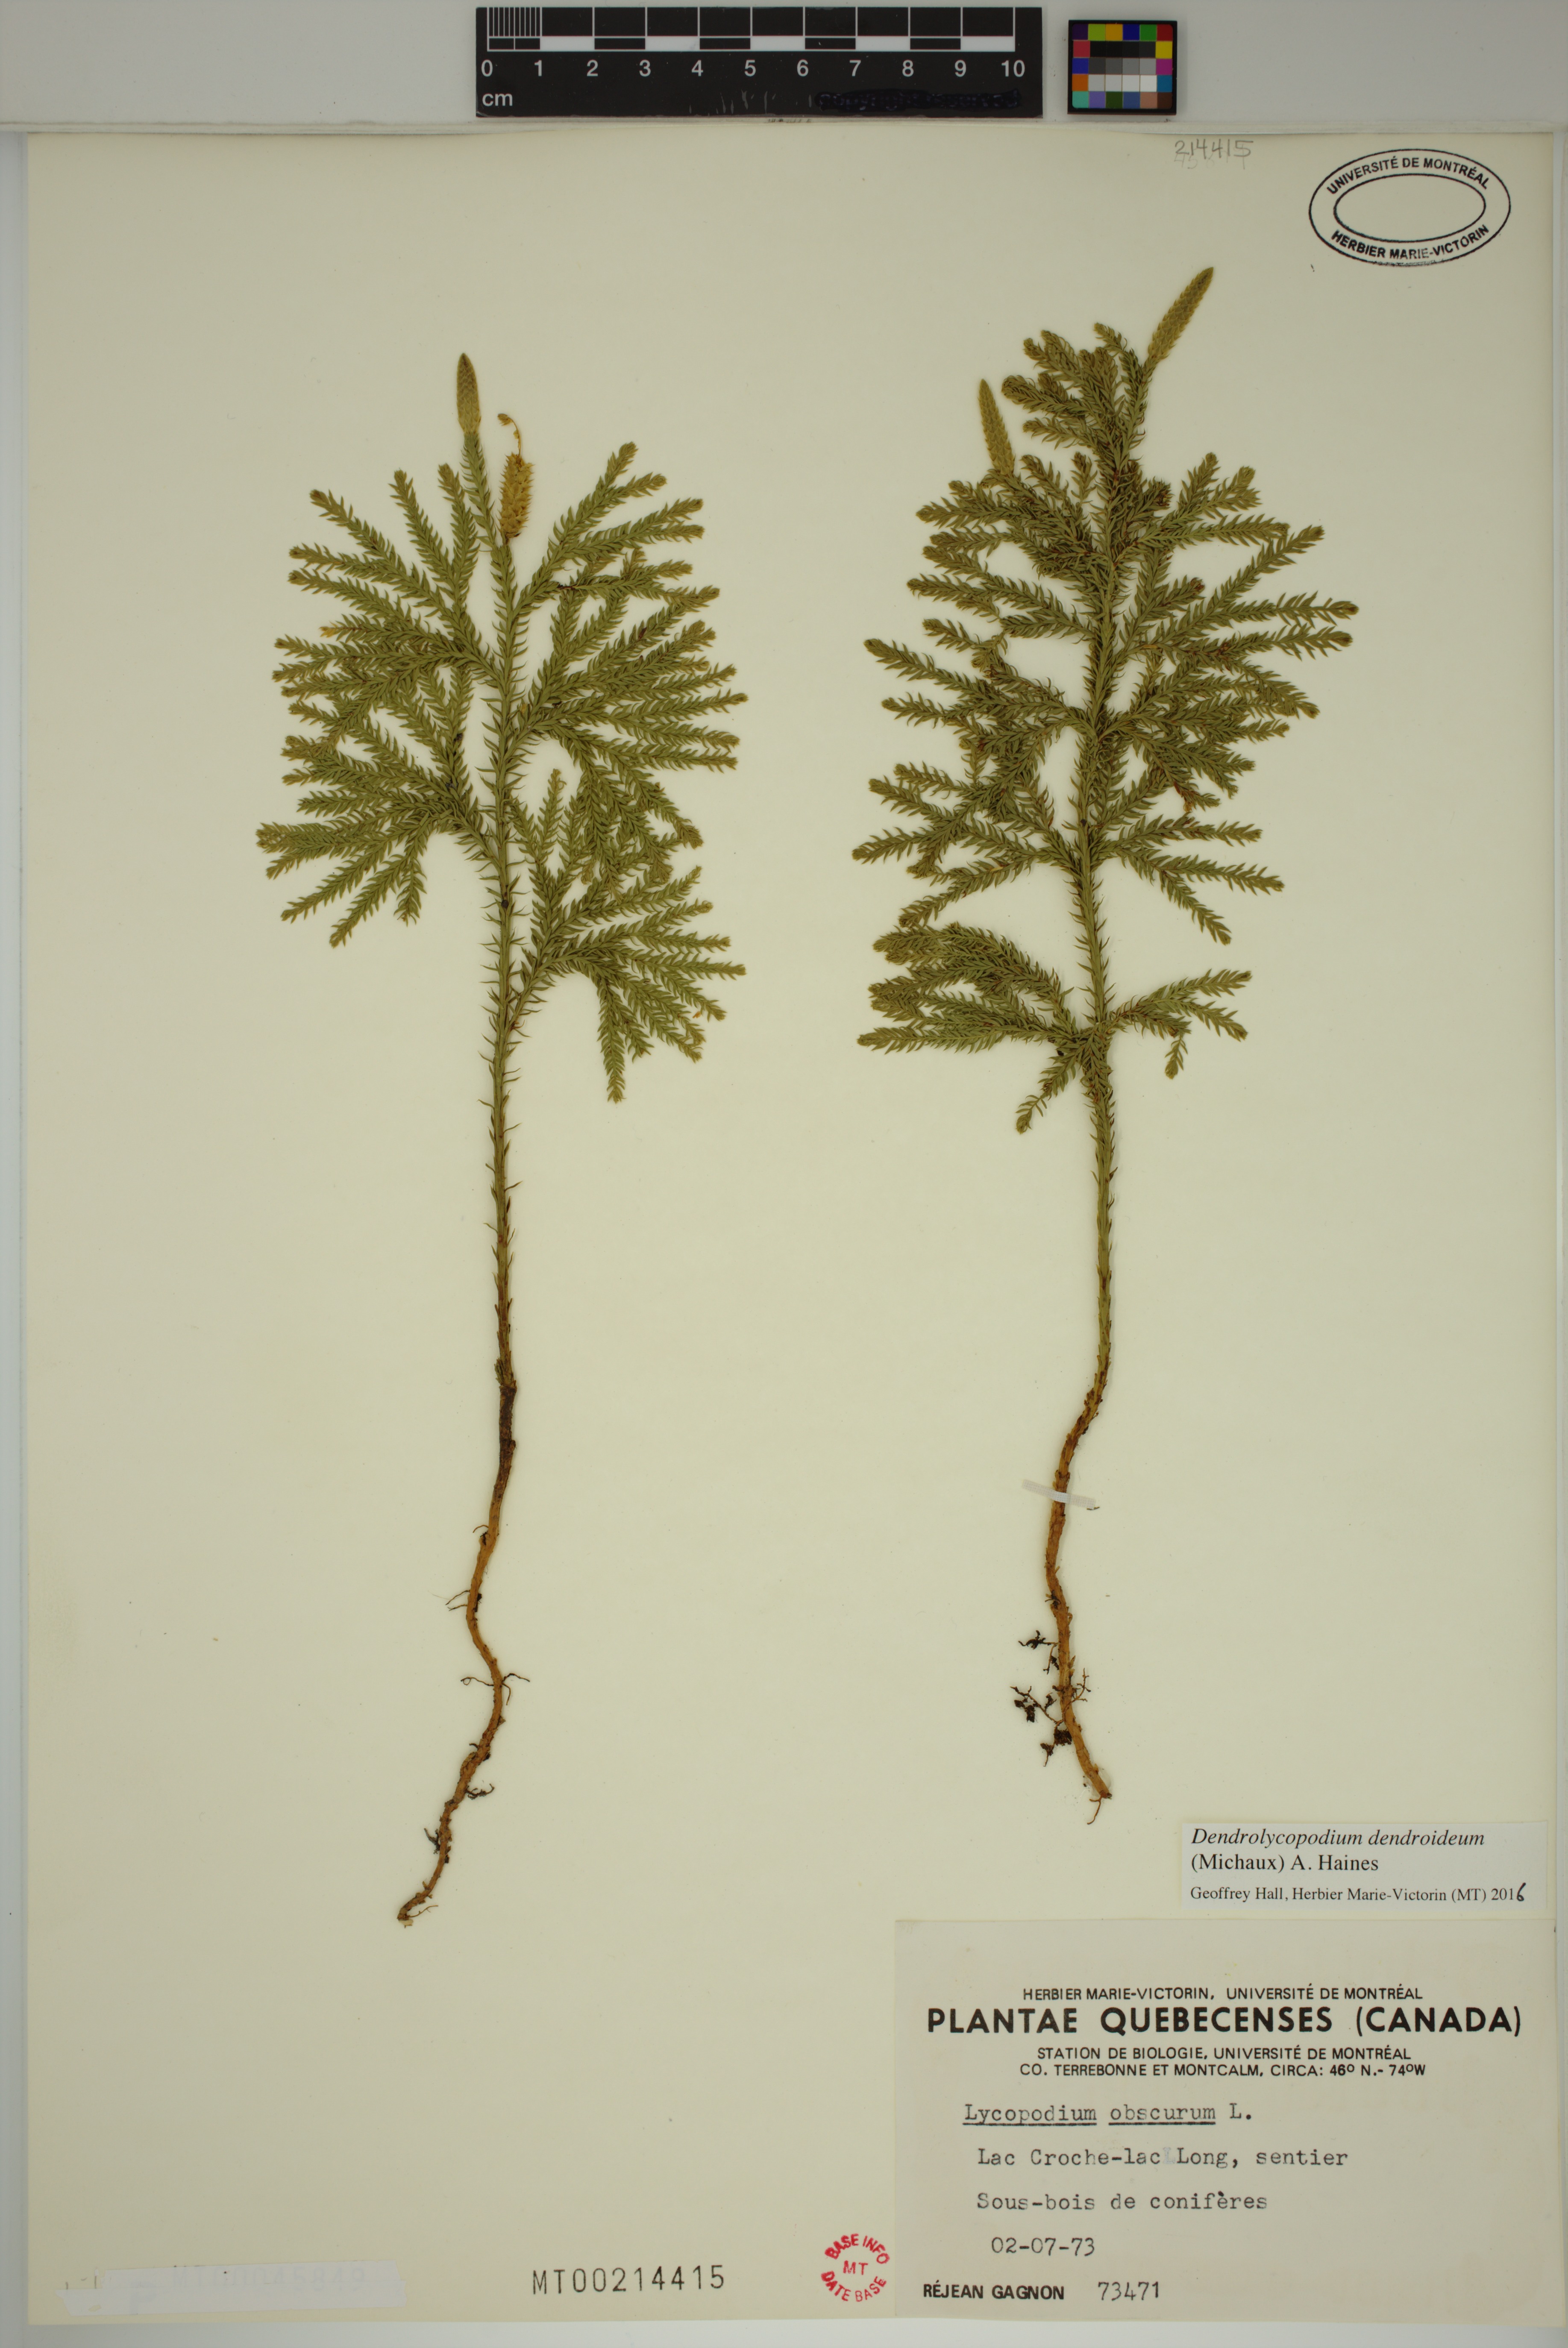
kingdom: Plantae
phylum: Tracheophyta
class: Lycopodiopsida
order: Lycopodiales
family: Lycopodiaceae
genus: Dendrolycopodium
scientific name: Dendrolycopodium dendroideum
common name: Northern tree-clubmoss
